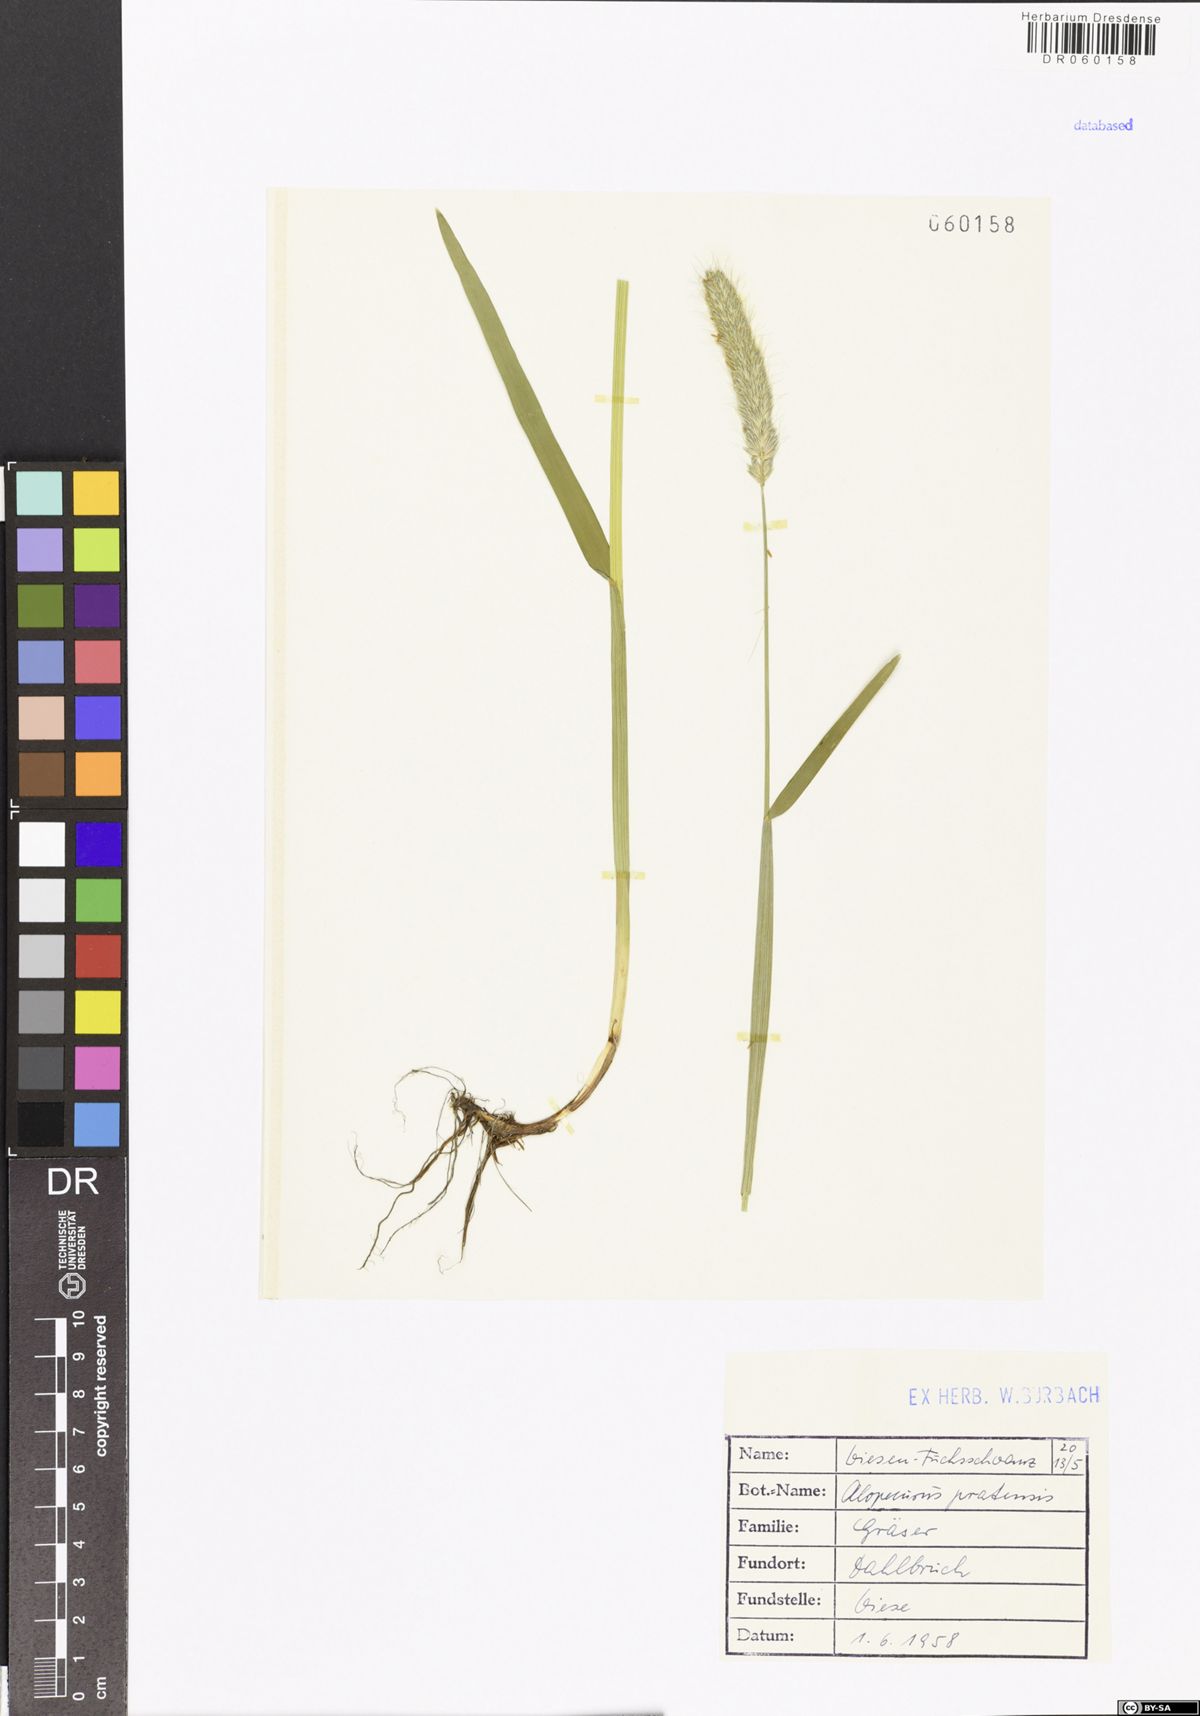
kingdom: Plantae
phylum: Tracheophyta
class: Liliopsida
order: Poales
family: Poaceae
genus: Alopecurus
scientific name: Alopecurus pratensis
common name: Meadow foxtail
